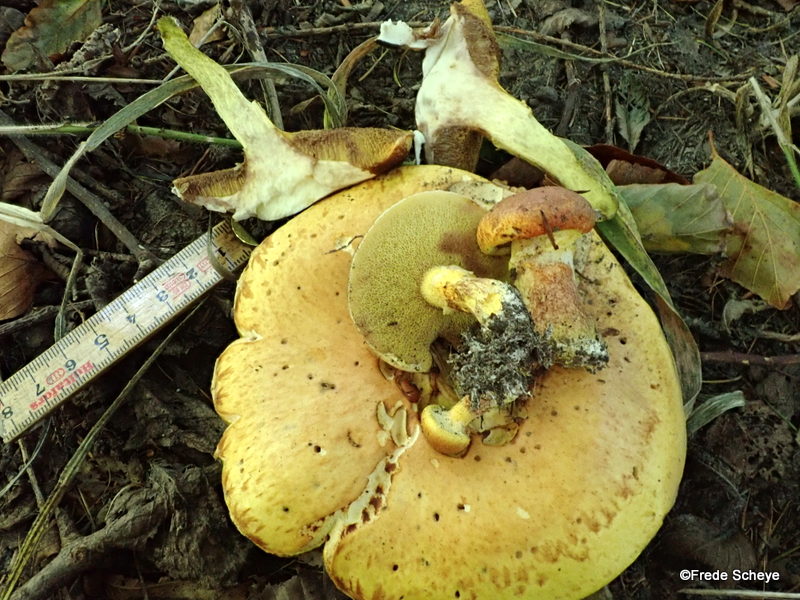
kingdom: Fungi
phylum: Basidiomycota
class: Agaricomycetes
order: Boletales
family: Suillaceae
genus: Suillus
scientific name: Suillus grevillei
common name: lærke-slimrørhat
